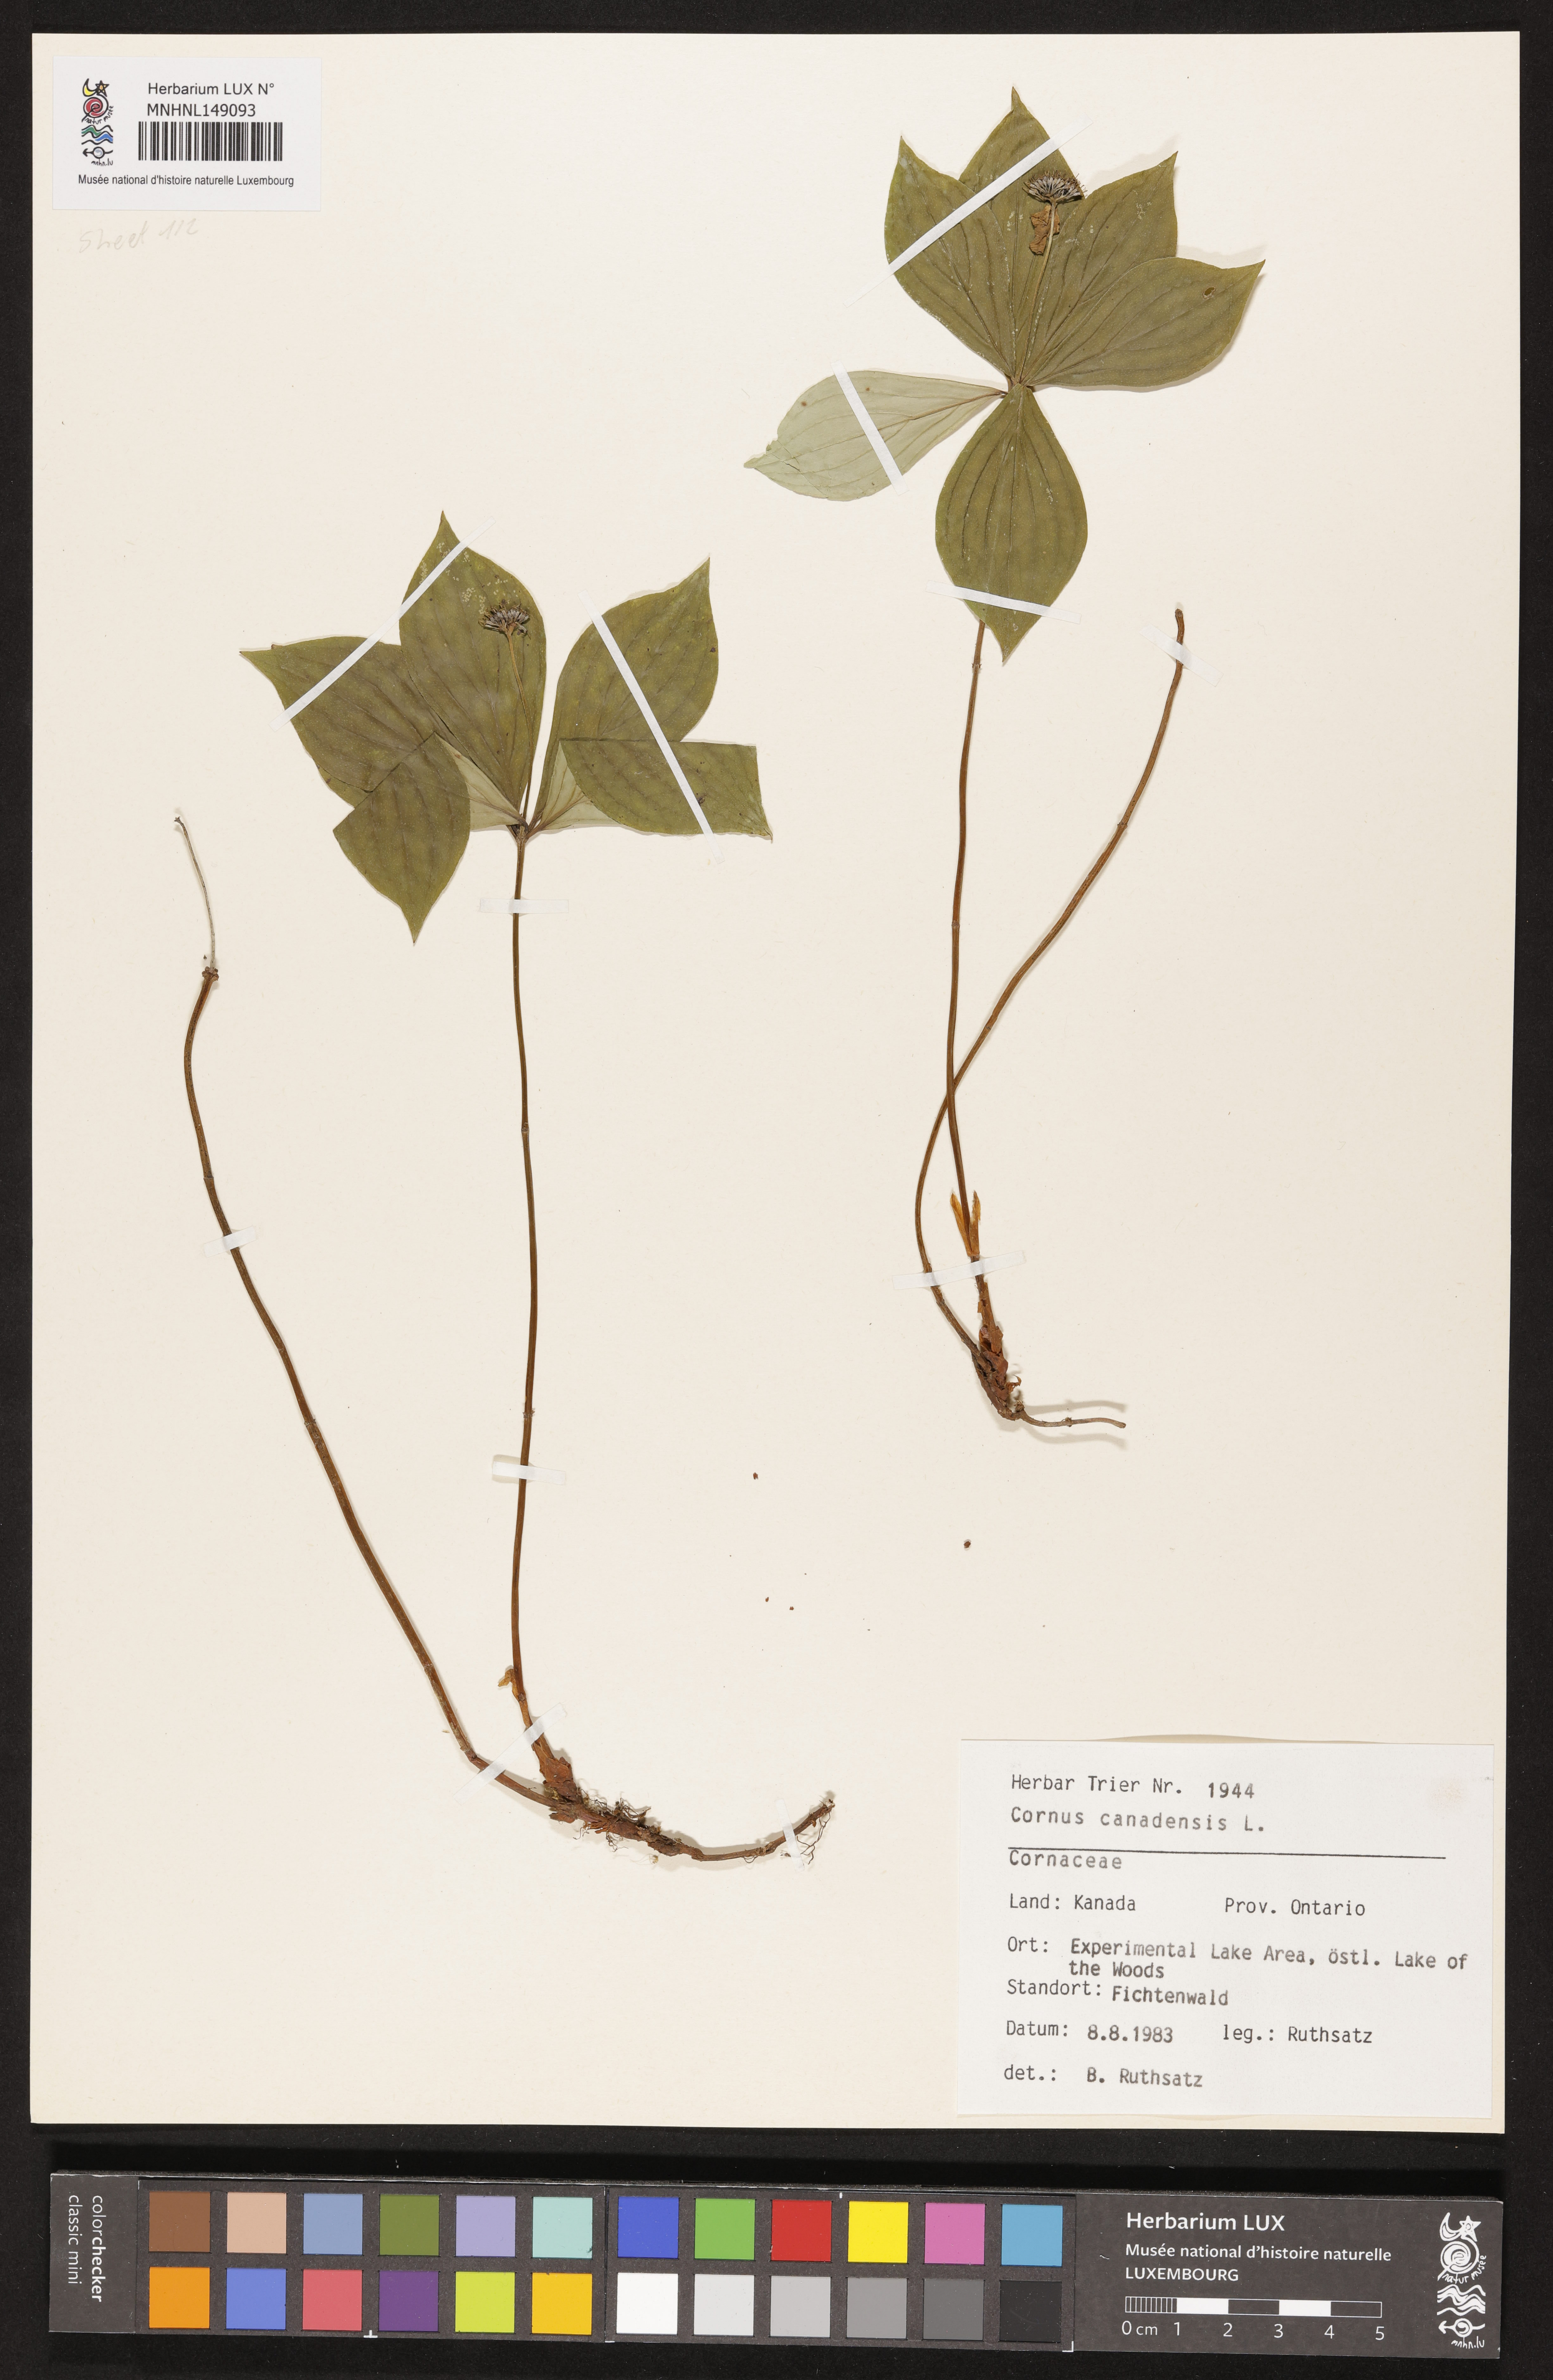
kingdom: Plantae
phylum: Tracheophyta
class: Magnoliopsida
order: Cornales
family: Cornaceae
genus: Cornus
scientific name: Cornus canadensis
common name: Creeping dogwood
